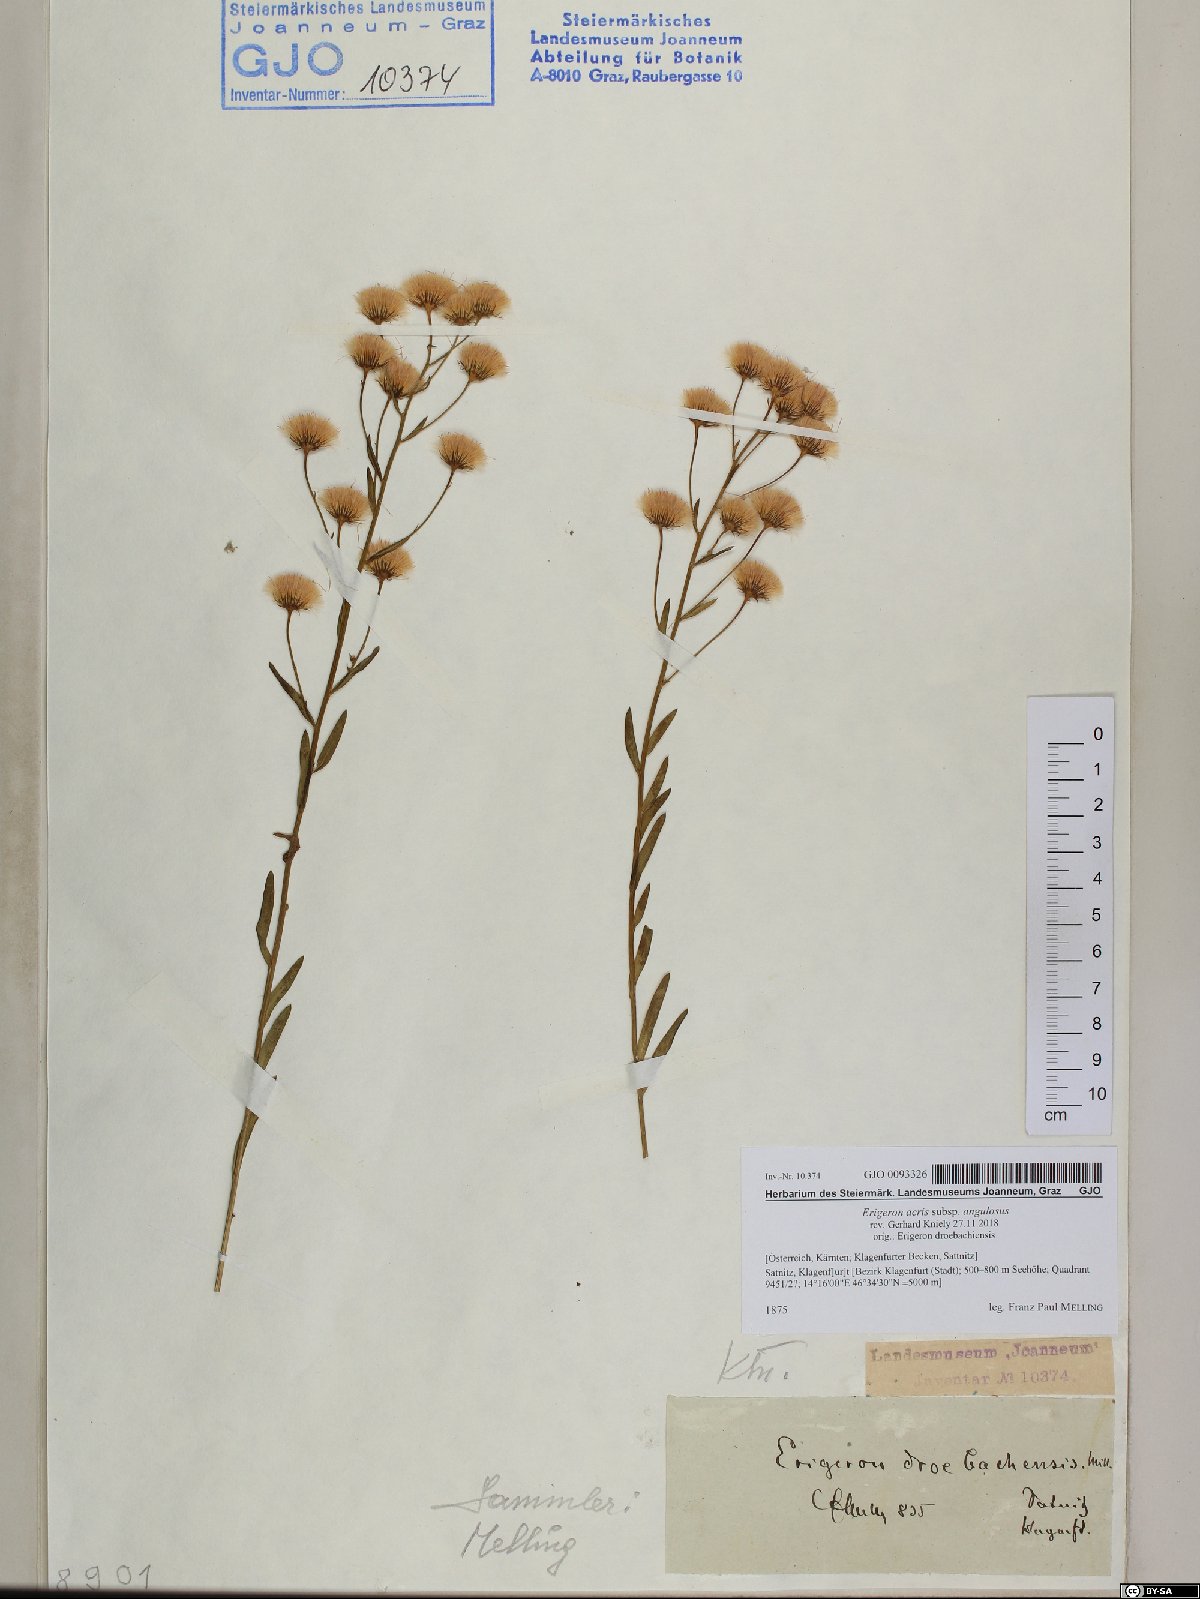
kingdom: Plantae
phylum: Tracheophyta
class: Magnoliopsida
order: Asterales
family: Asteraceae
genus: Erigeron
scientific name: Erigeron angulosus
